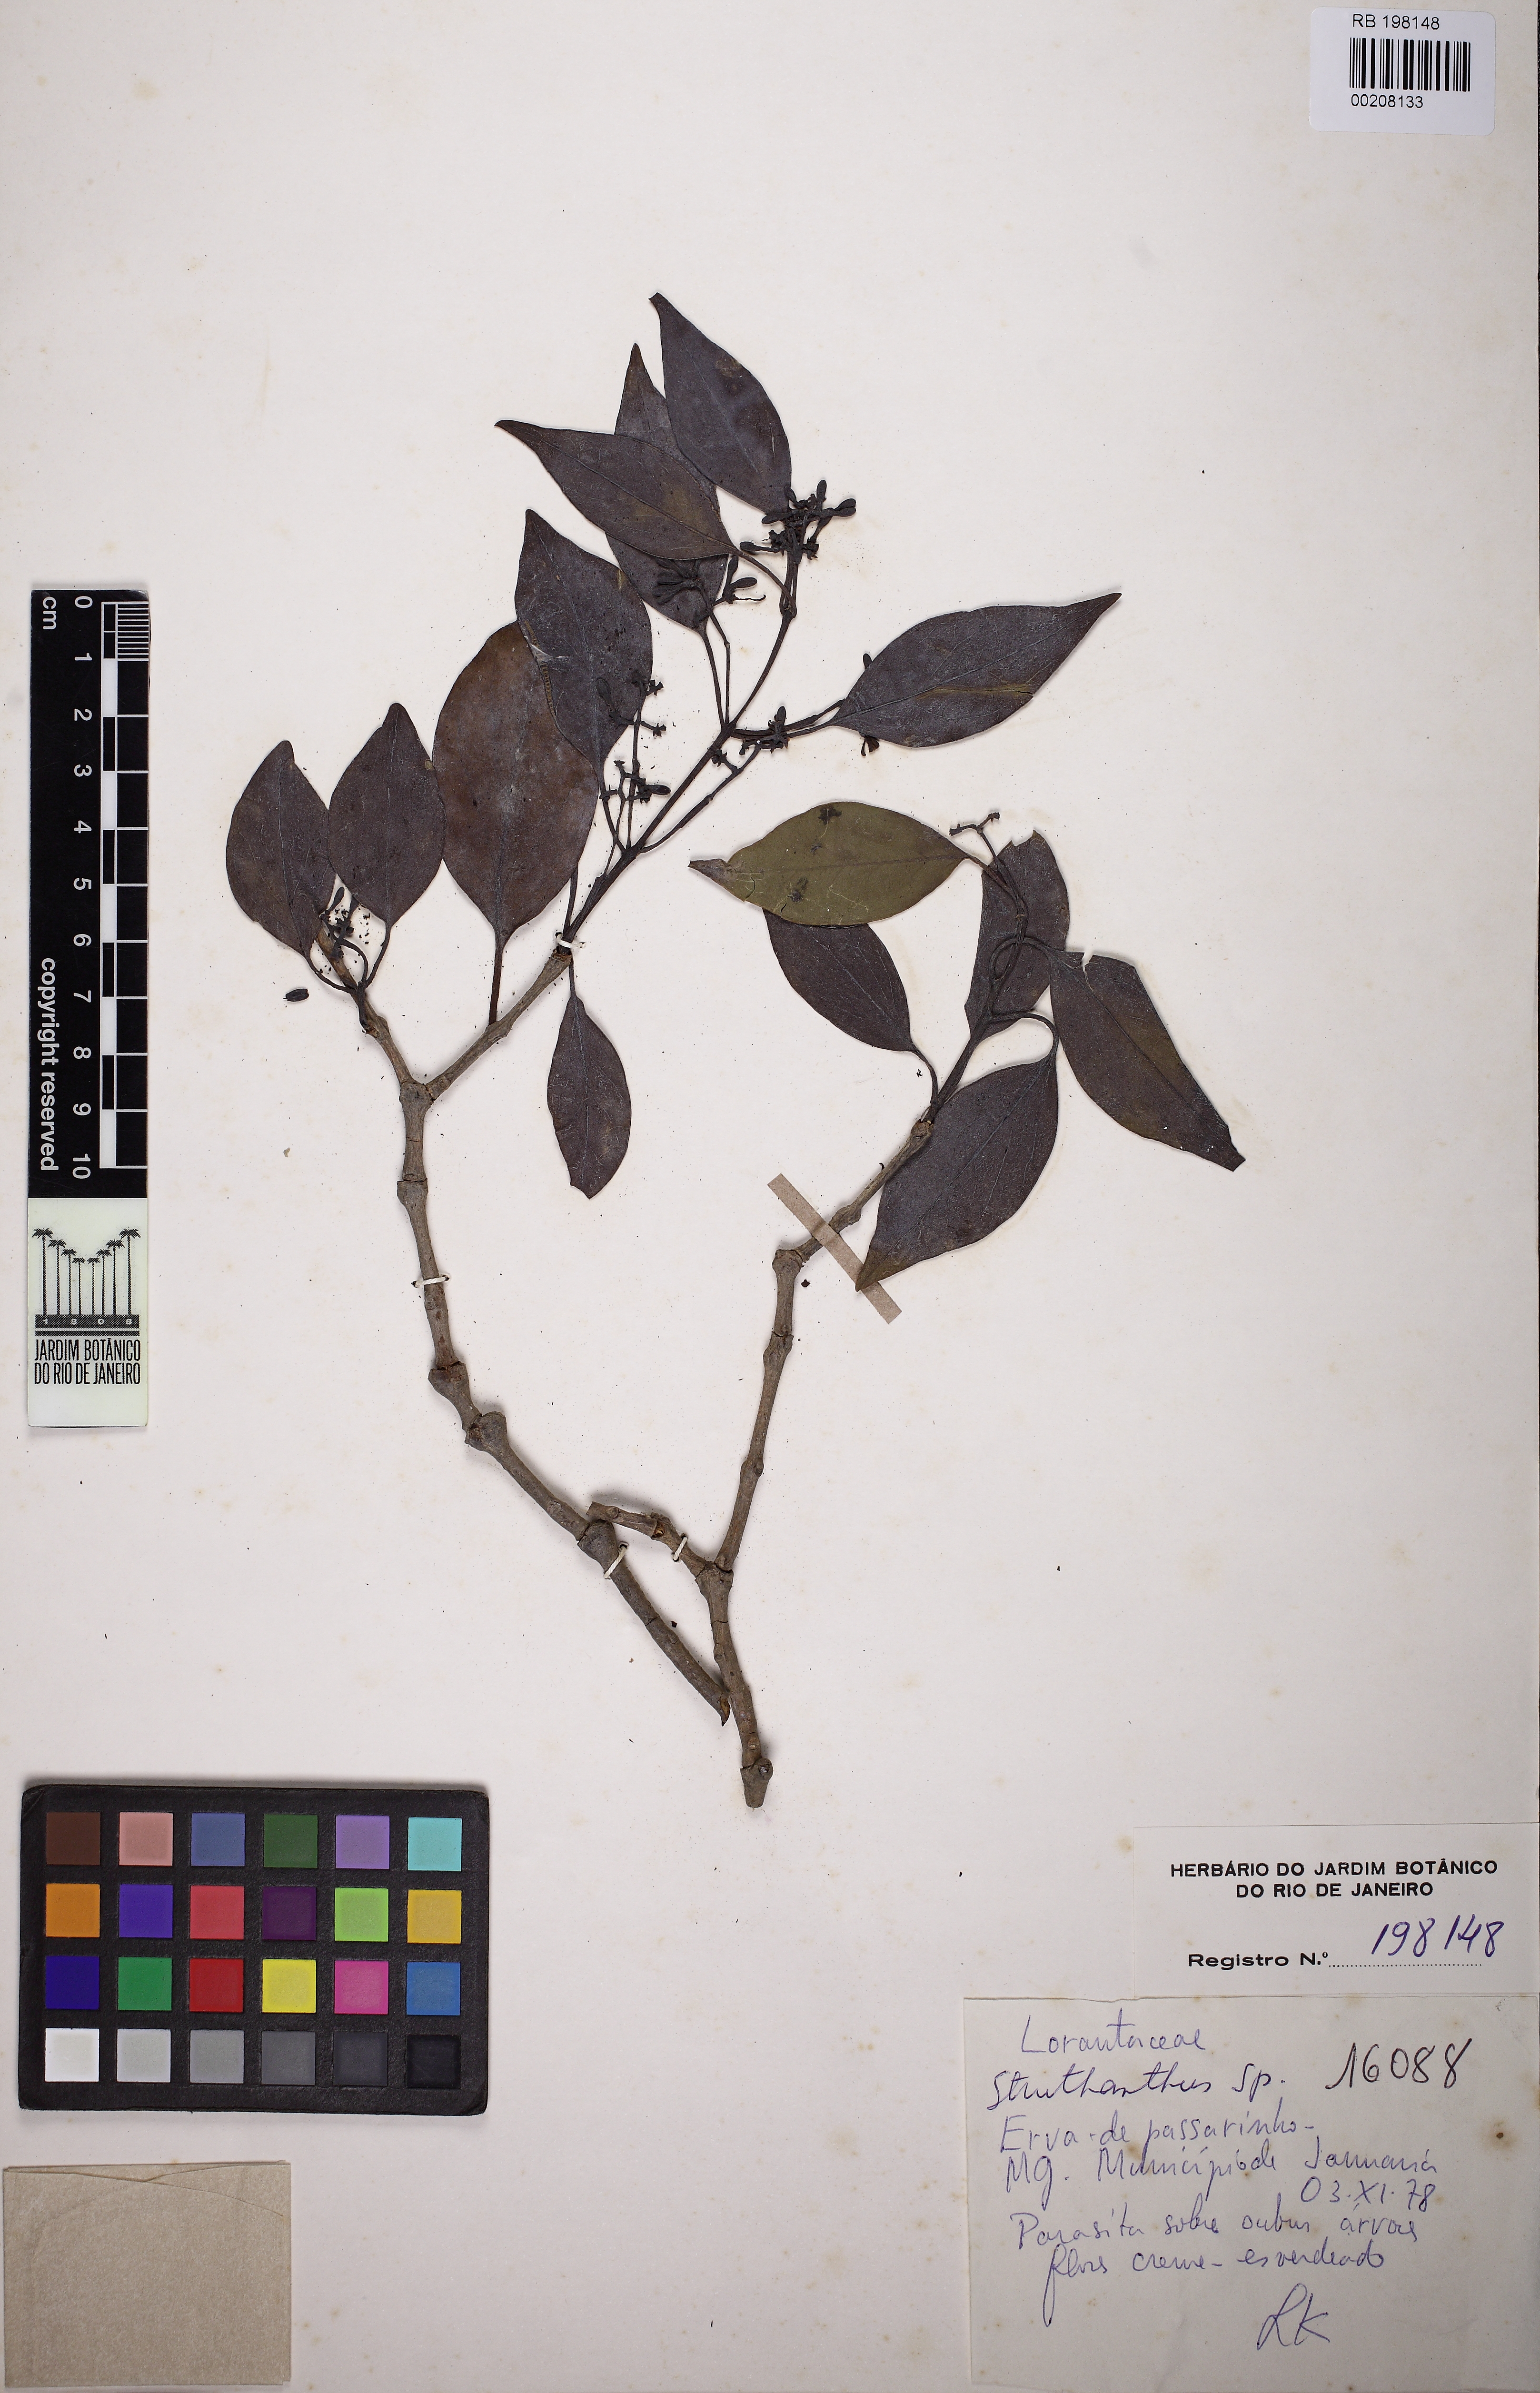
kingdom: Plantae
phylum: Tracheophyta
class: Magnoliopsida
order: Santalales
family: Loranthaceae
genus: Struthanthus
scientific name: Struthanthus
